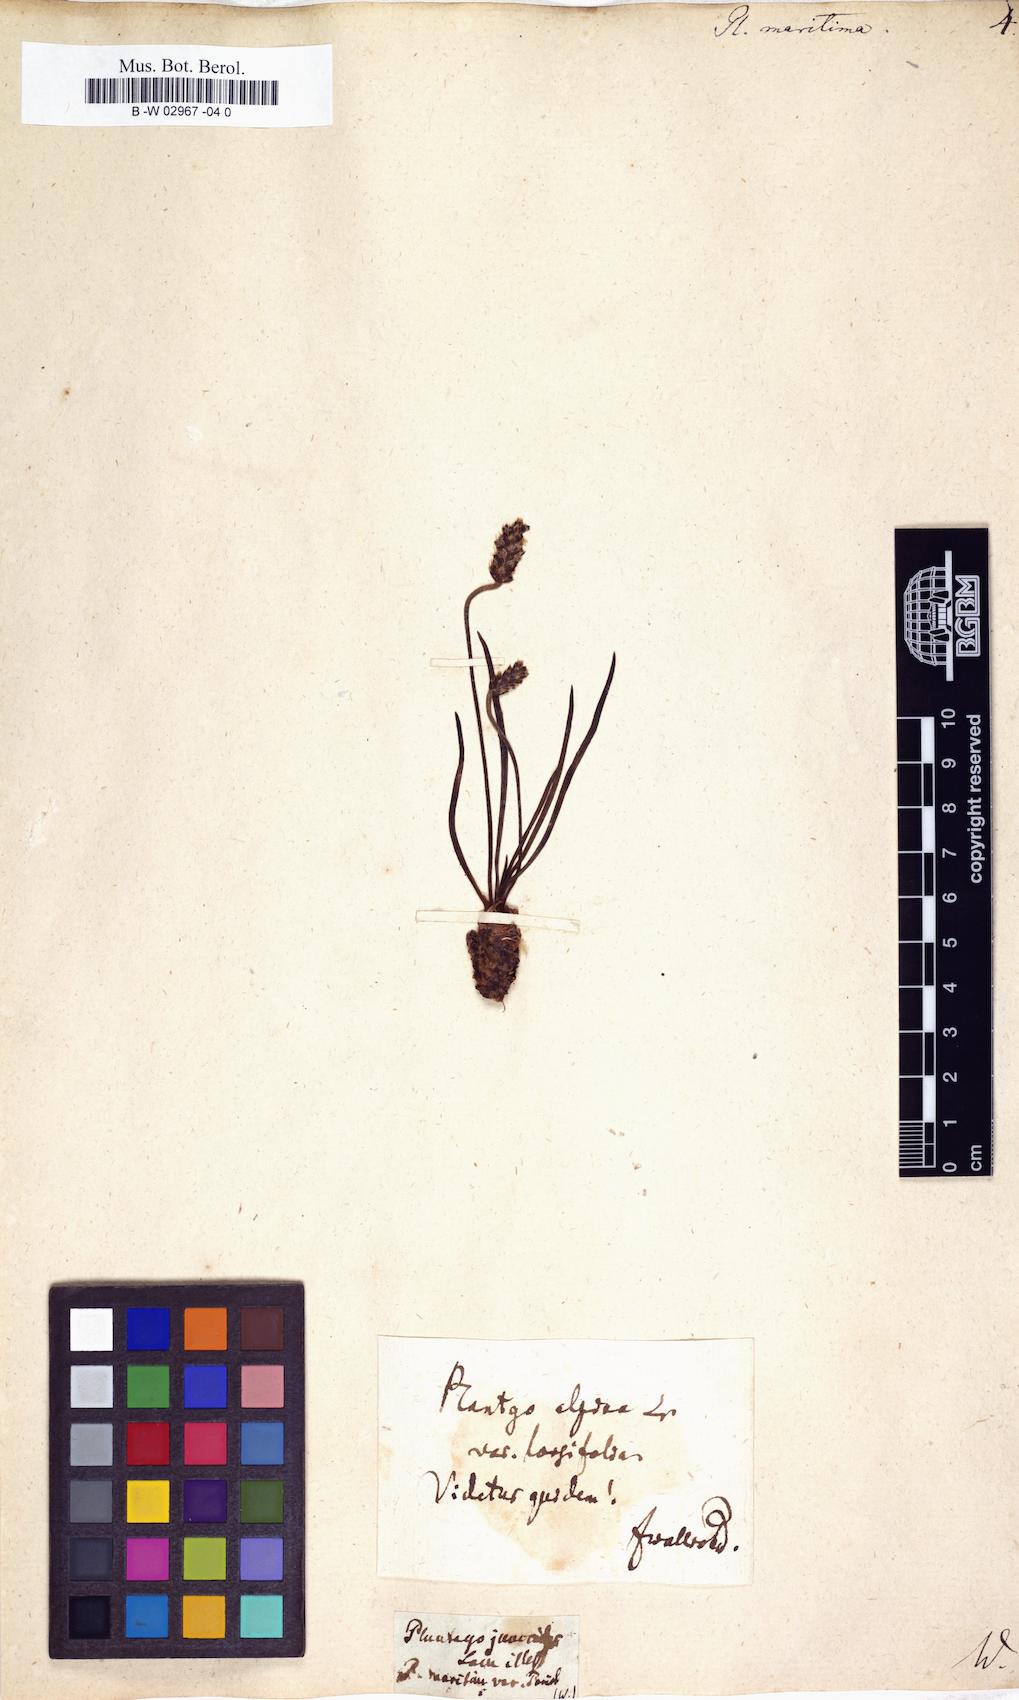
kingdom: Plantae
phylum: Tracheophyta
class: Magnoliopsida
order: Lamiales
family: Plantaginaceae
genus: Plantago
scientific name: Plantago maritima
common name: Sea plantain
